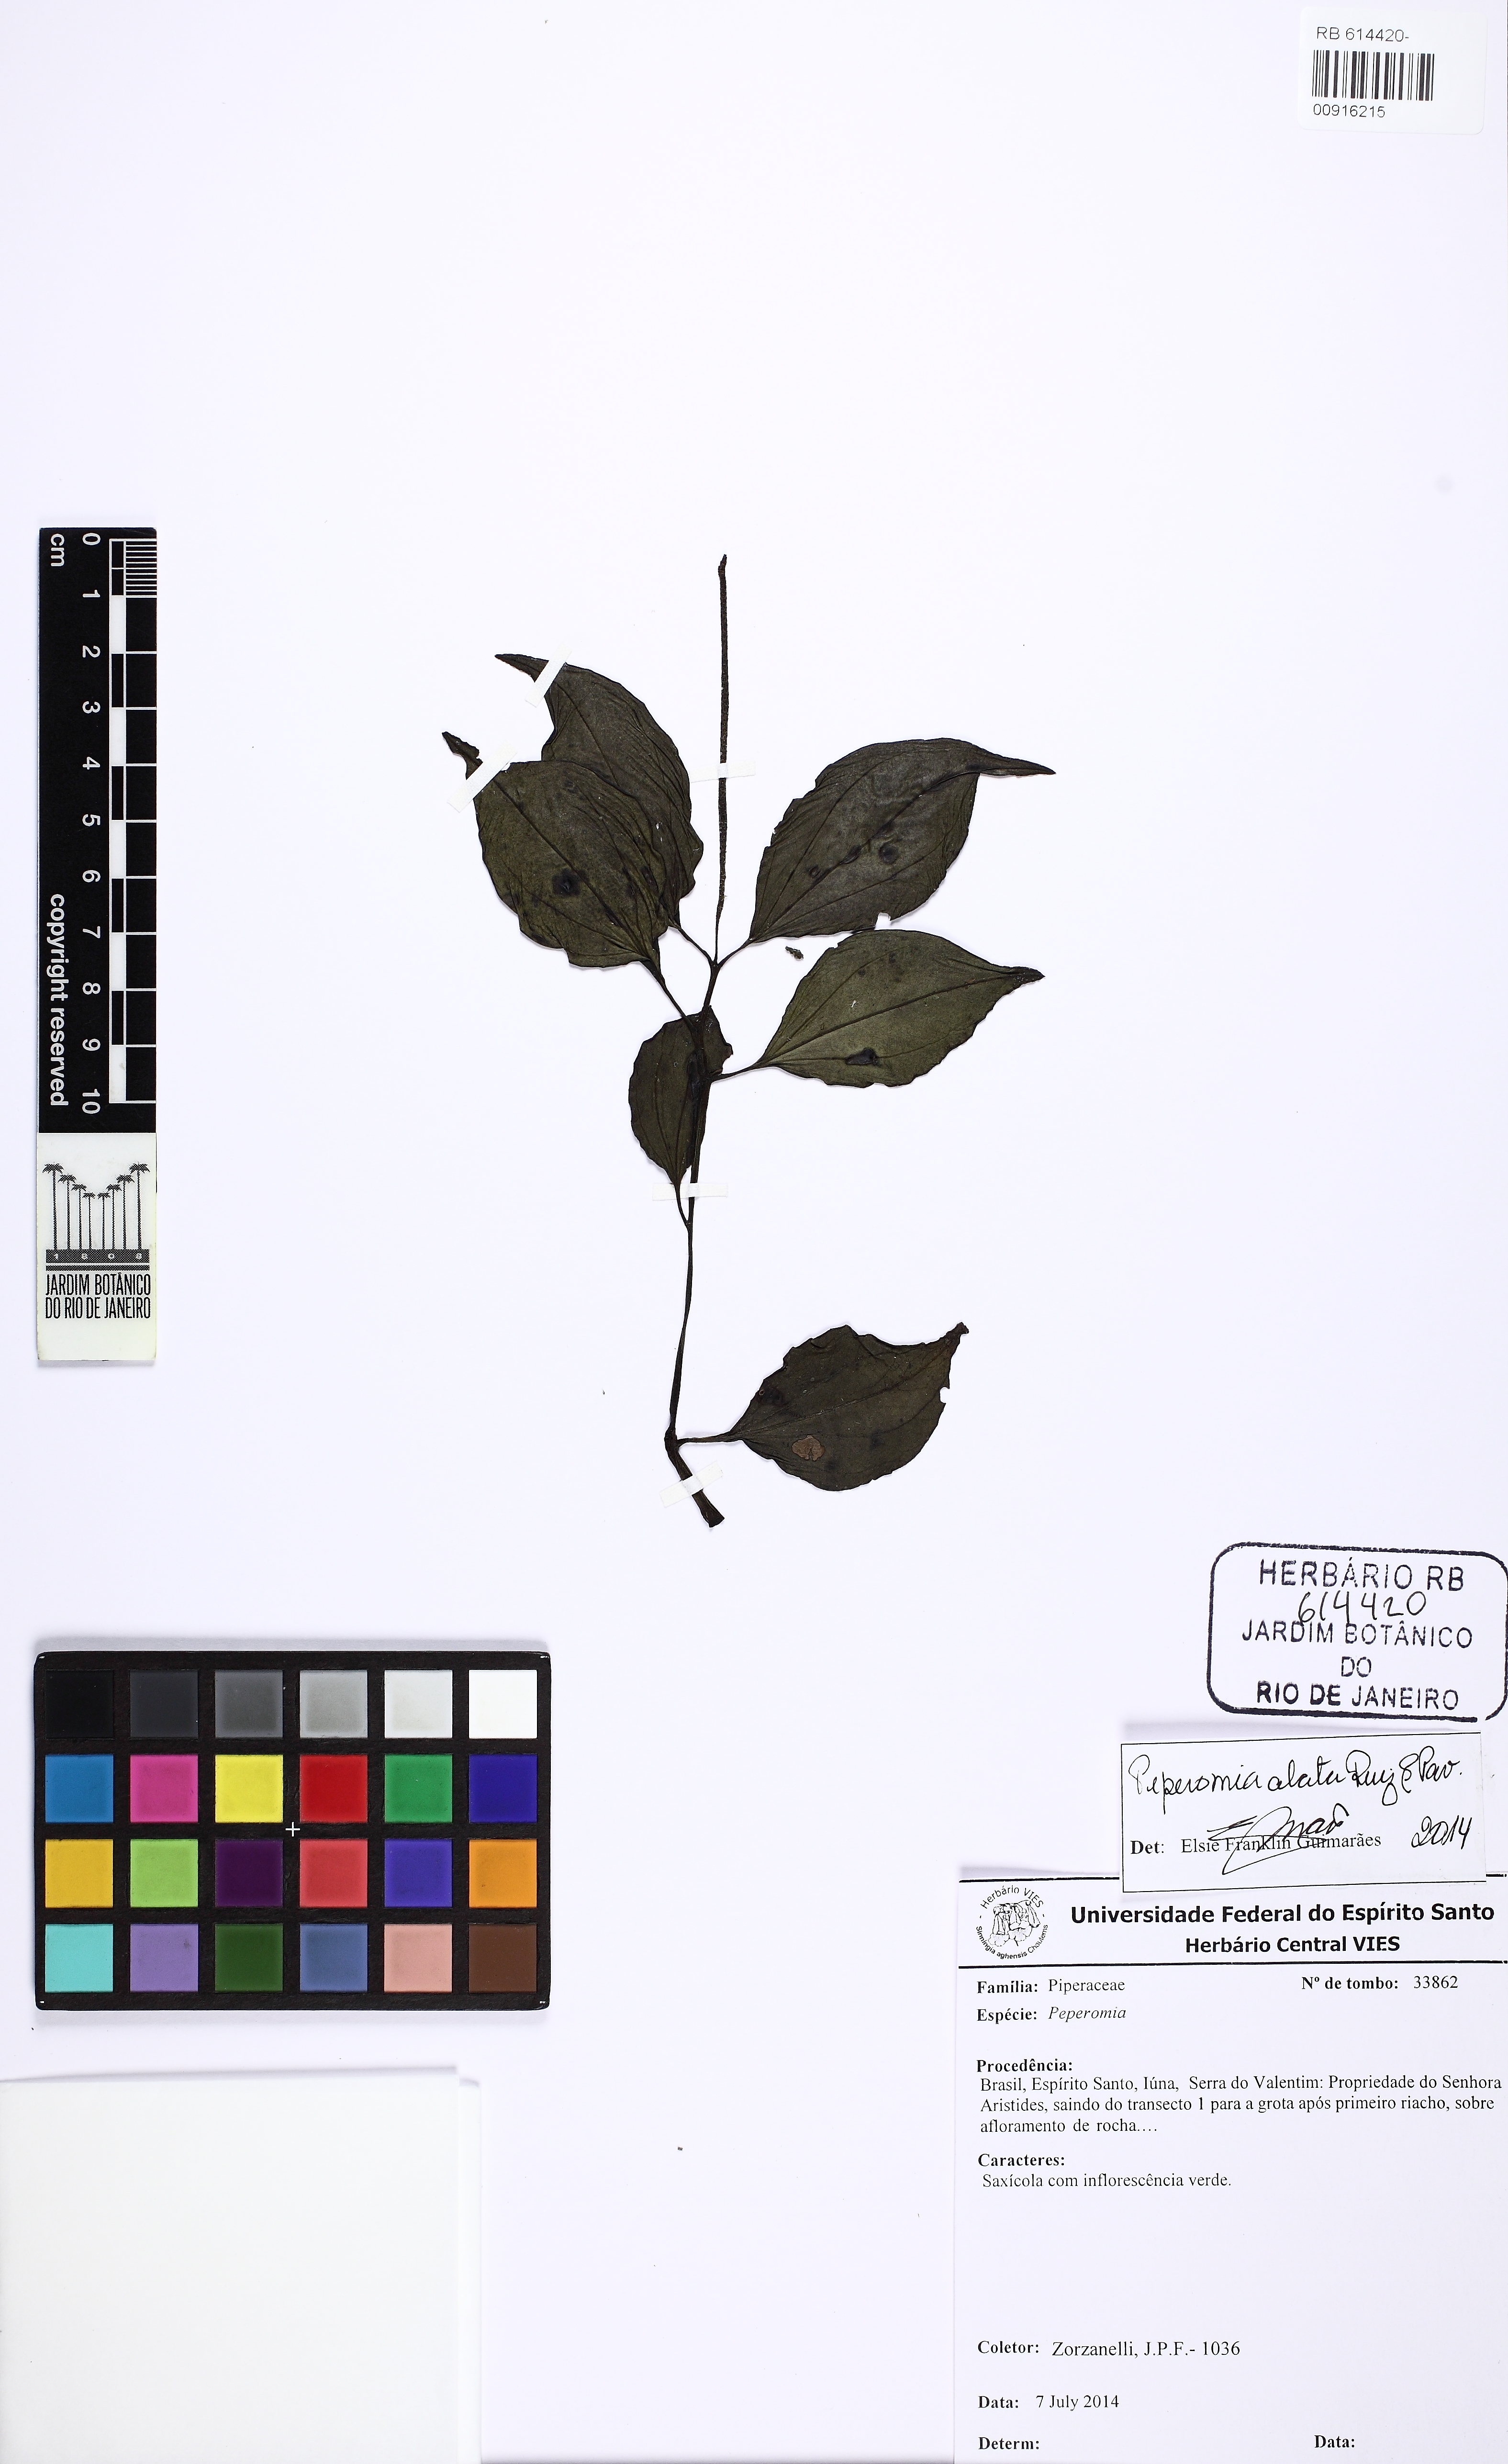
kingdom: Plantae
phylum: Tracheophyta
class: Magnoliopsida
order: Piperales
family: Piperaceae
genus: Peperomia
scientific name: Peperomia alata
